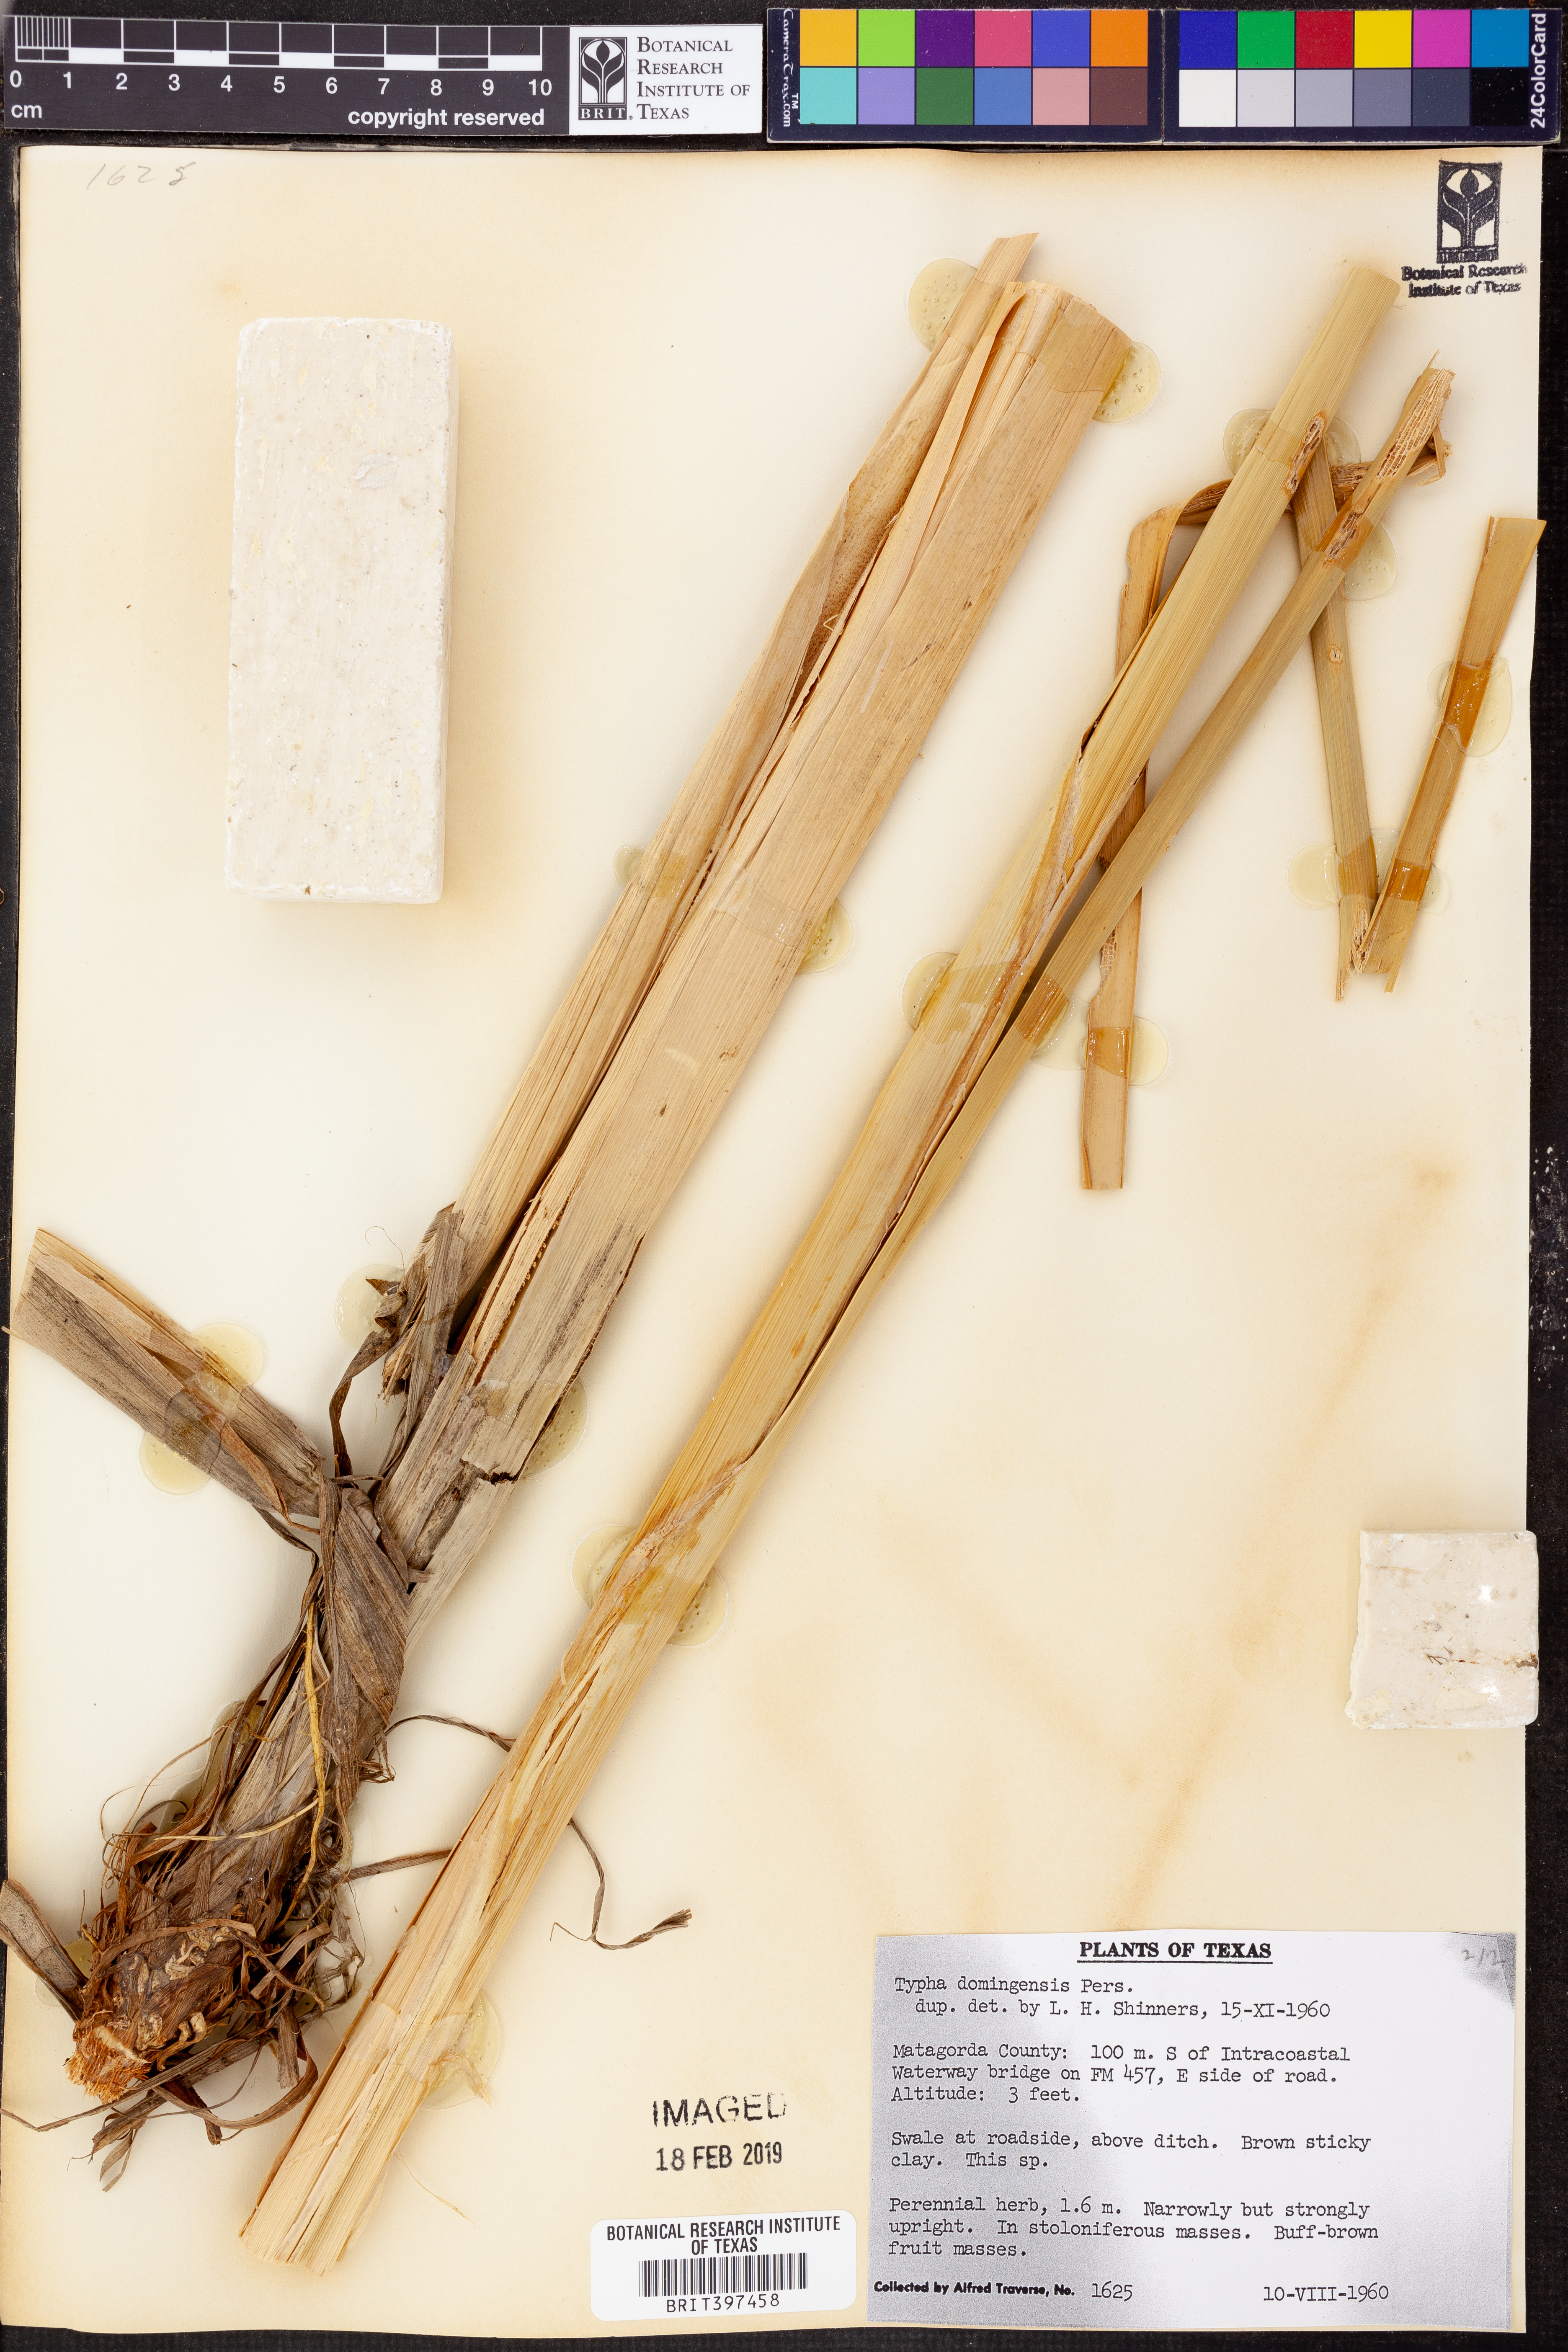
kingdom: Plantae
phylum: Tracheophyta
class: Liliopsida
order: Poales
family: Typhaceae
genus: Typha
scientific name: Typha domingensis
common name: Southern cattail
